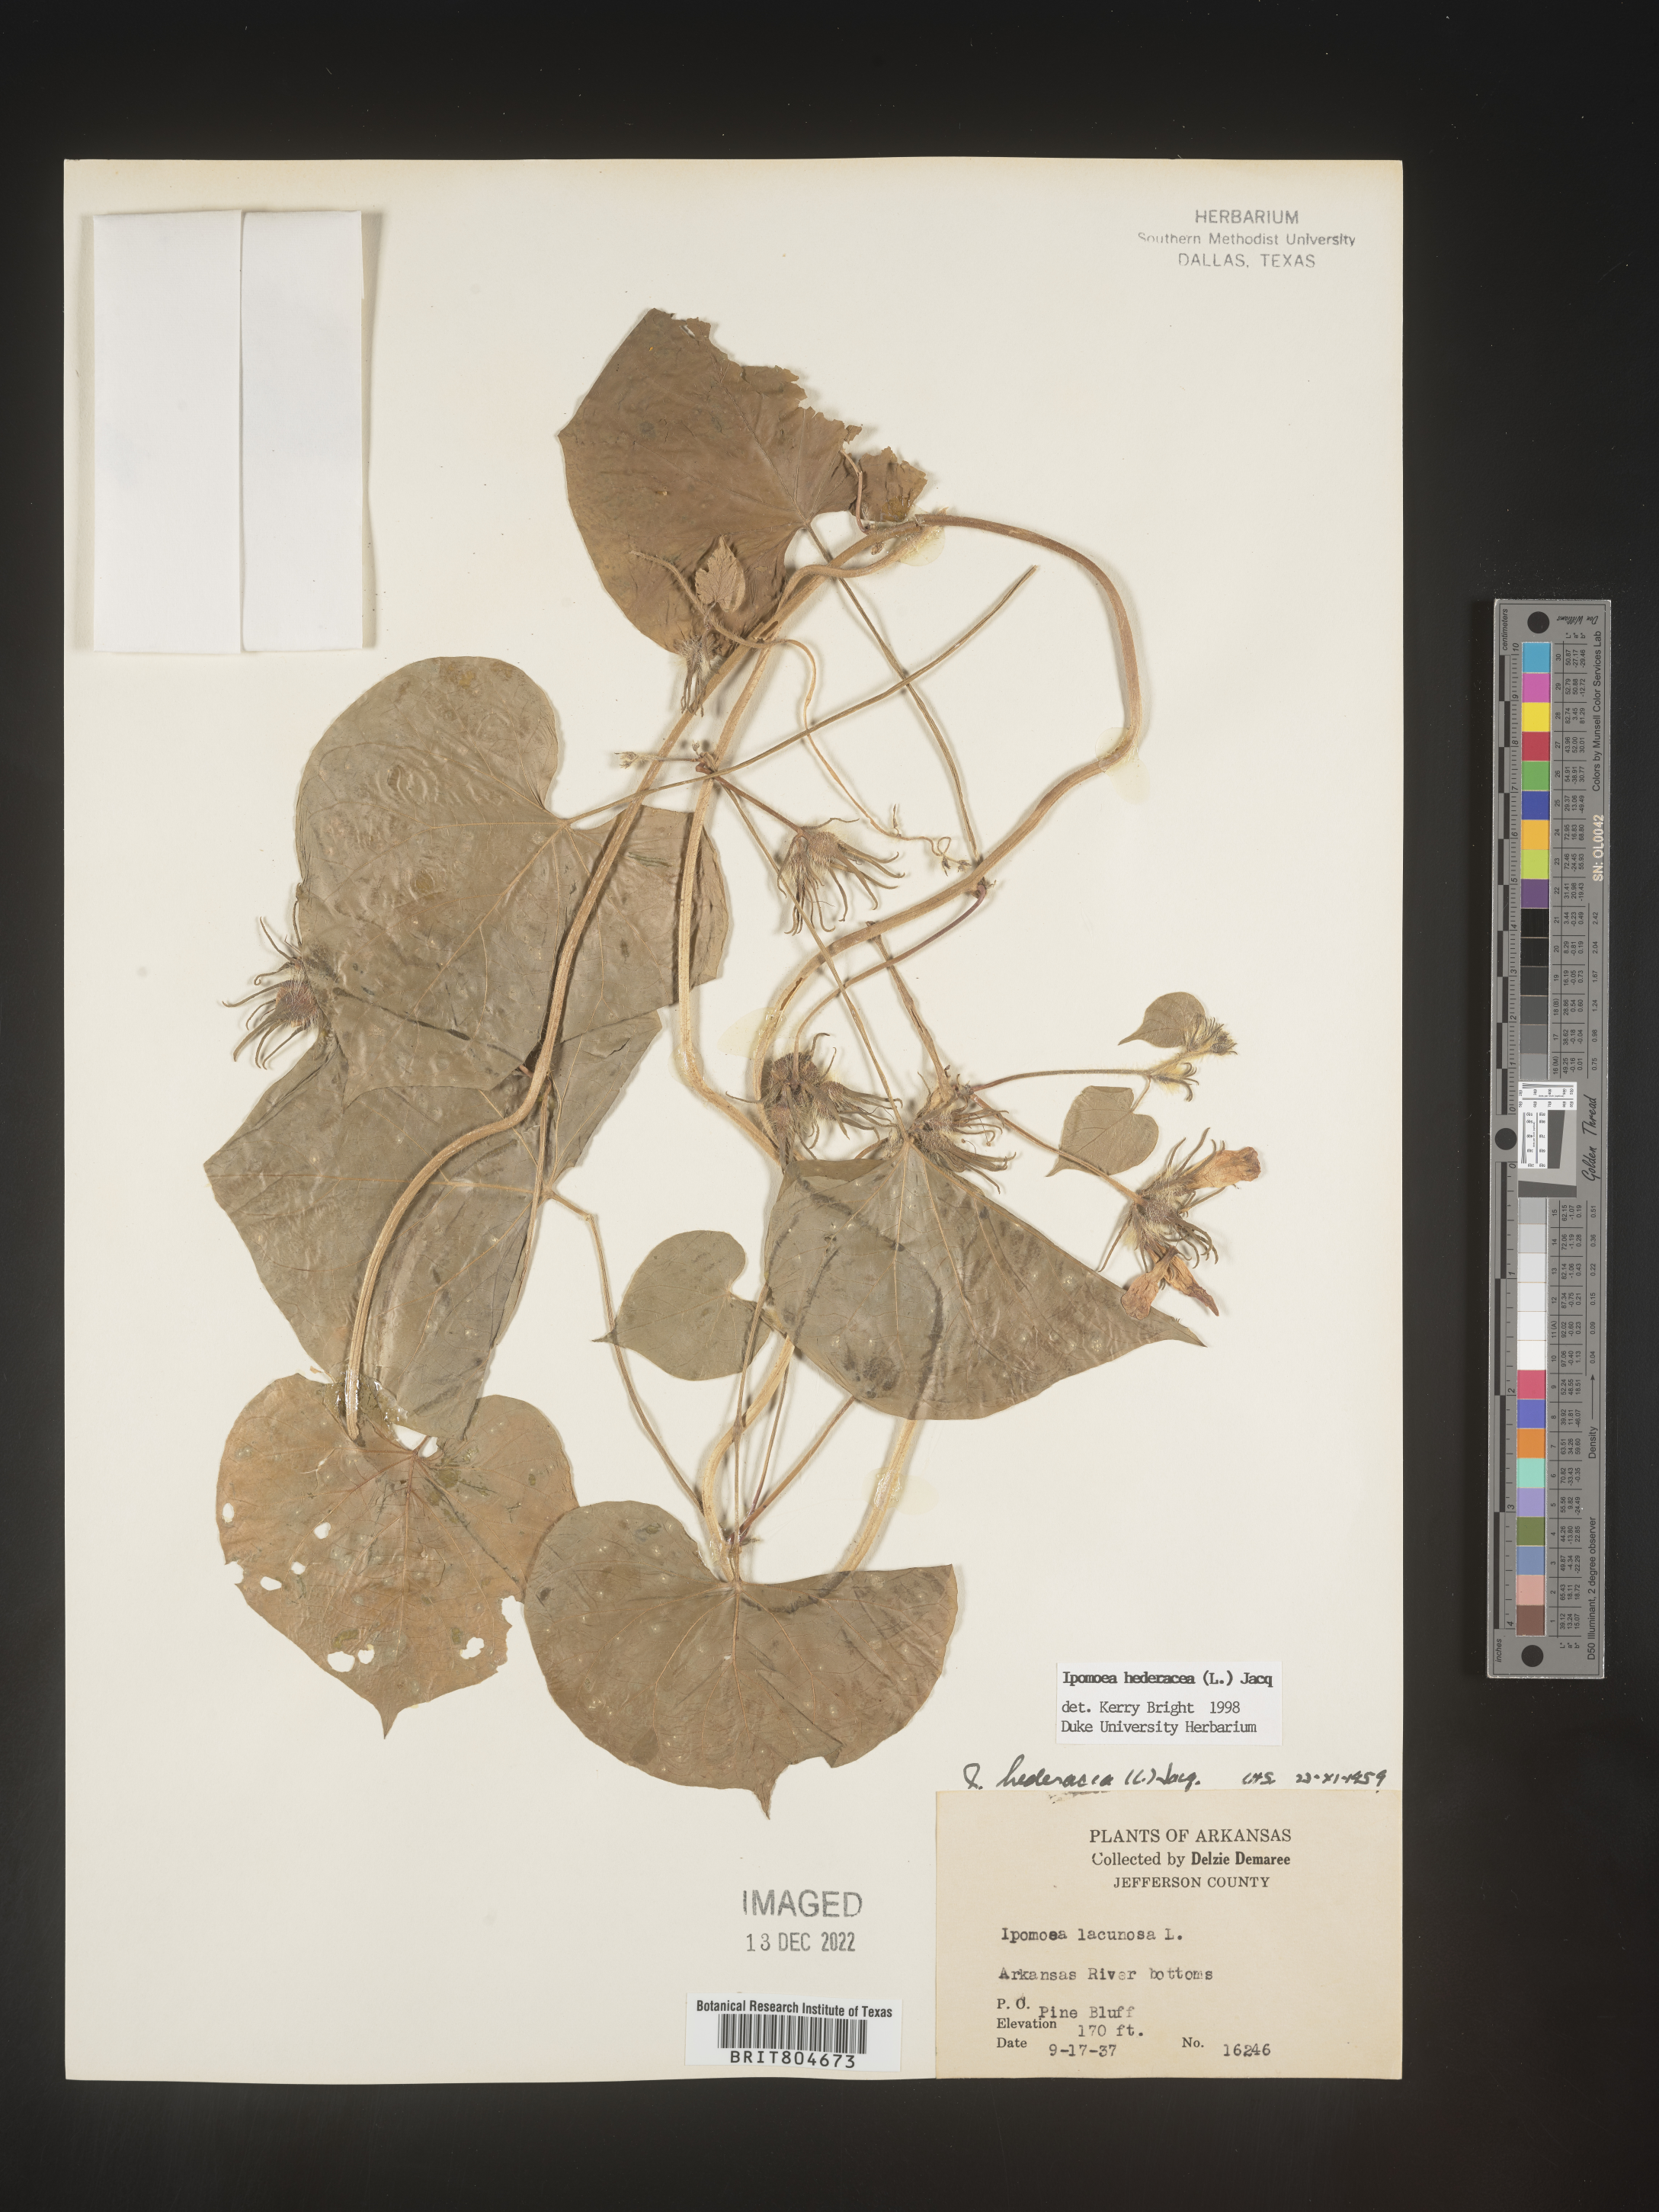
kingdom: Plantae
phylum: Tracheophyta
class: Magnoliopsida
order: Solanales
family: Convolvulaceae
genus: Ipomoea
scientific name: Ipomoea hederacea
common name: Ivy-leaved morning-glory
